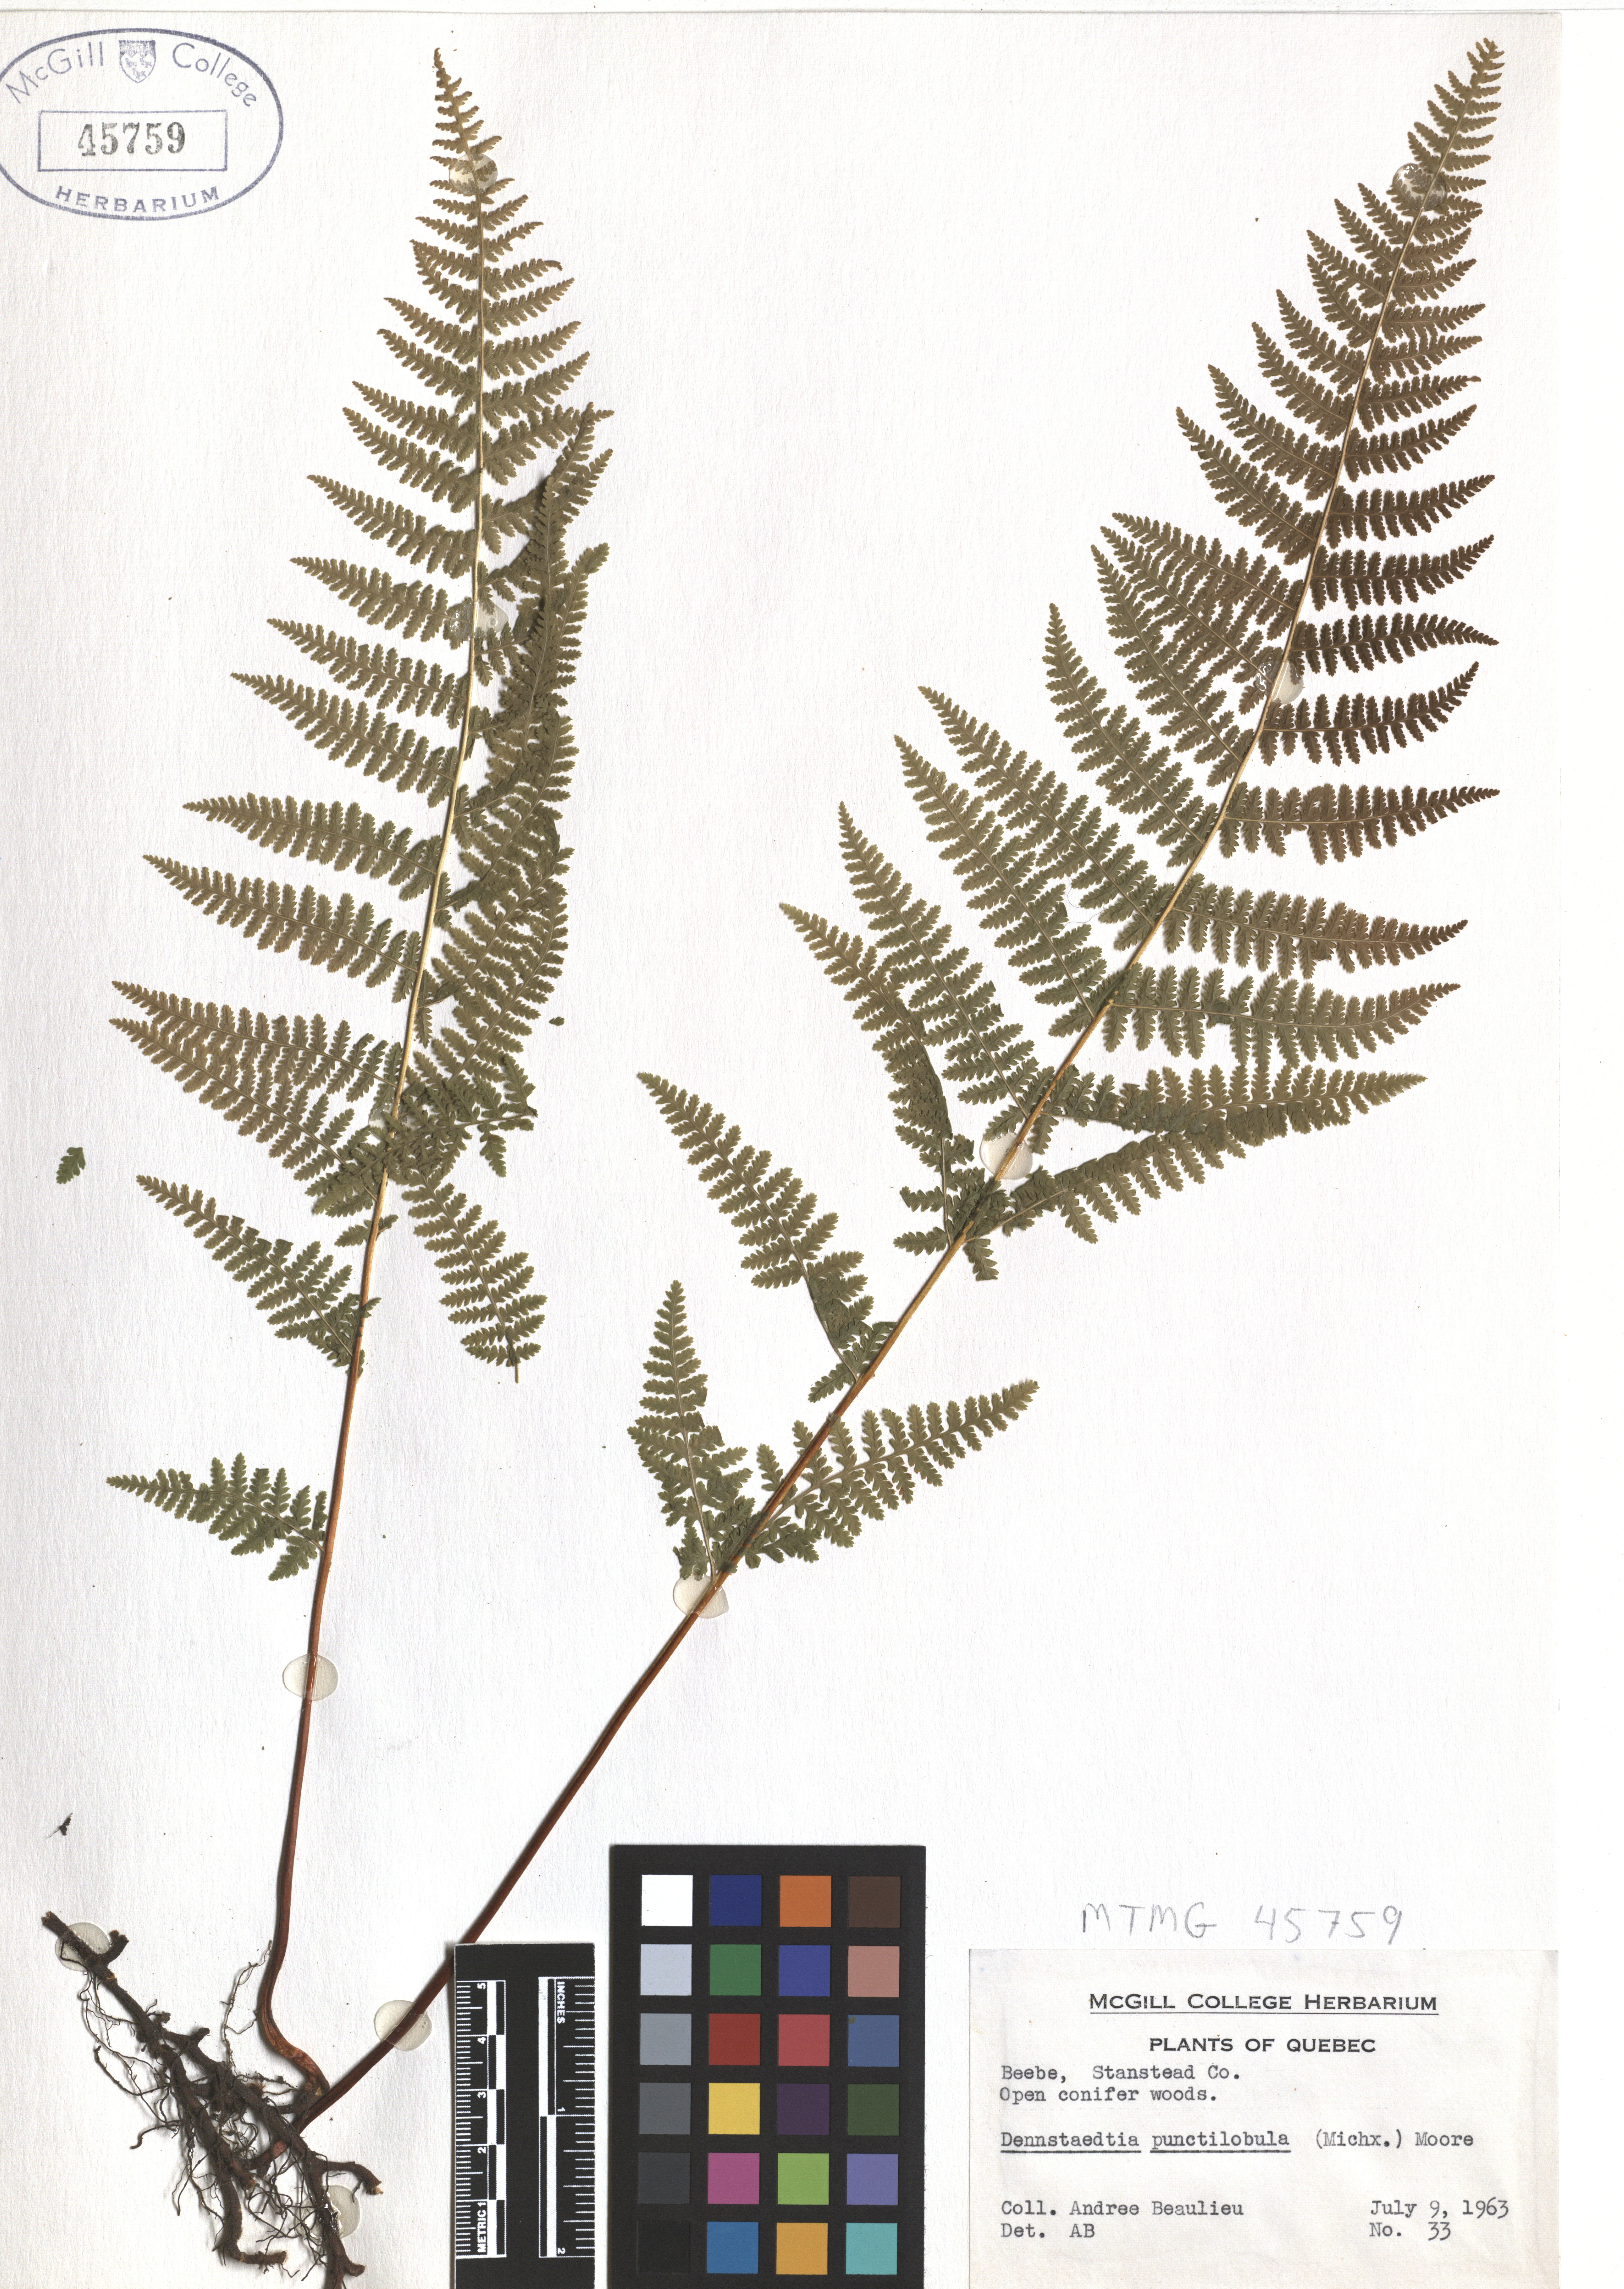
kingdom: Plantae
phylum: Tracheophyta
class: Polypodiopsida
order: Polypodiales
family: Dennstaedtiaceae
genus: Sitobolium
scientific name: Sitobolium punctilobum
